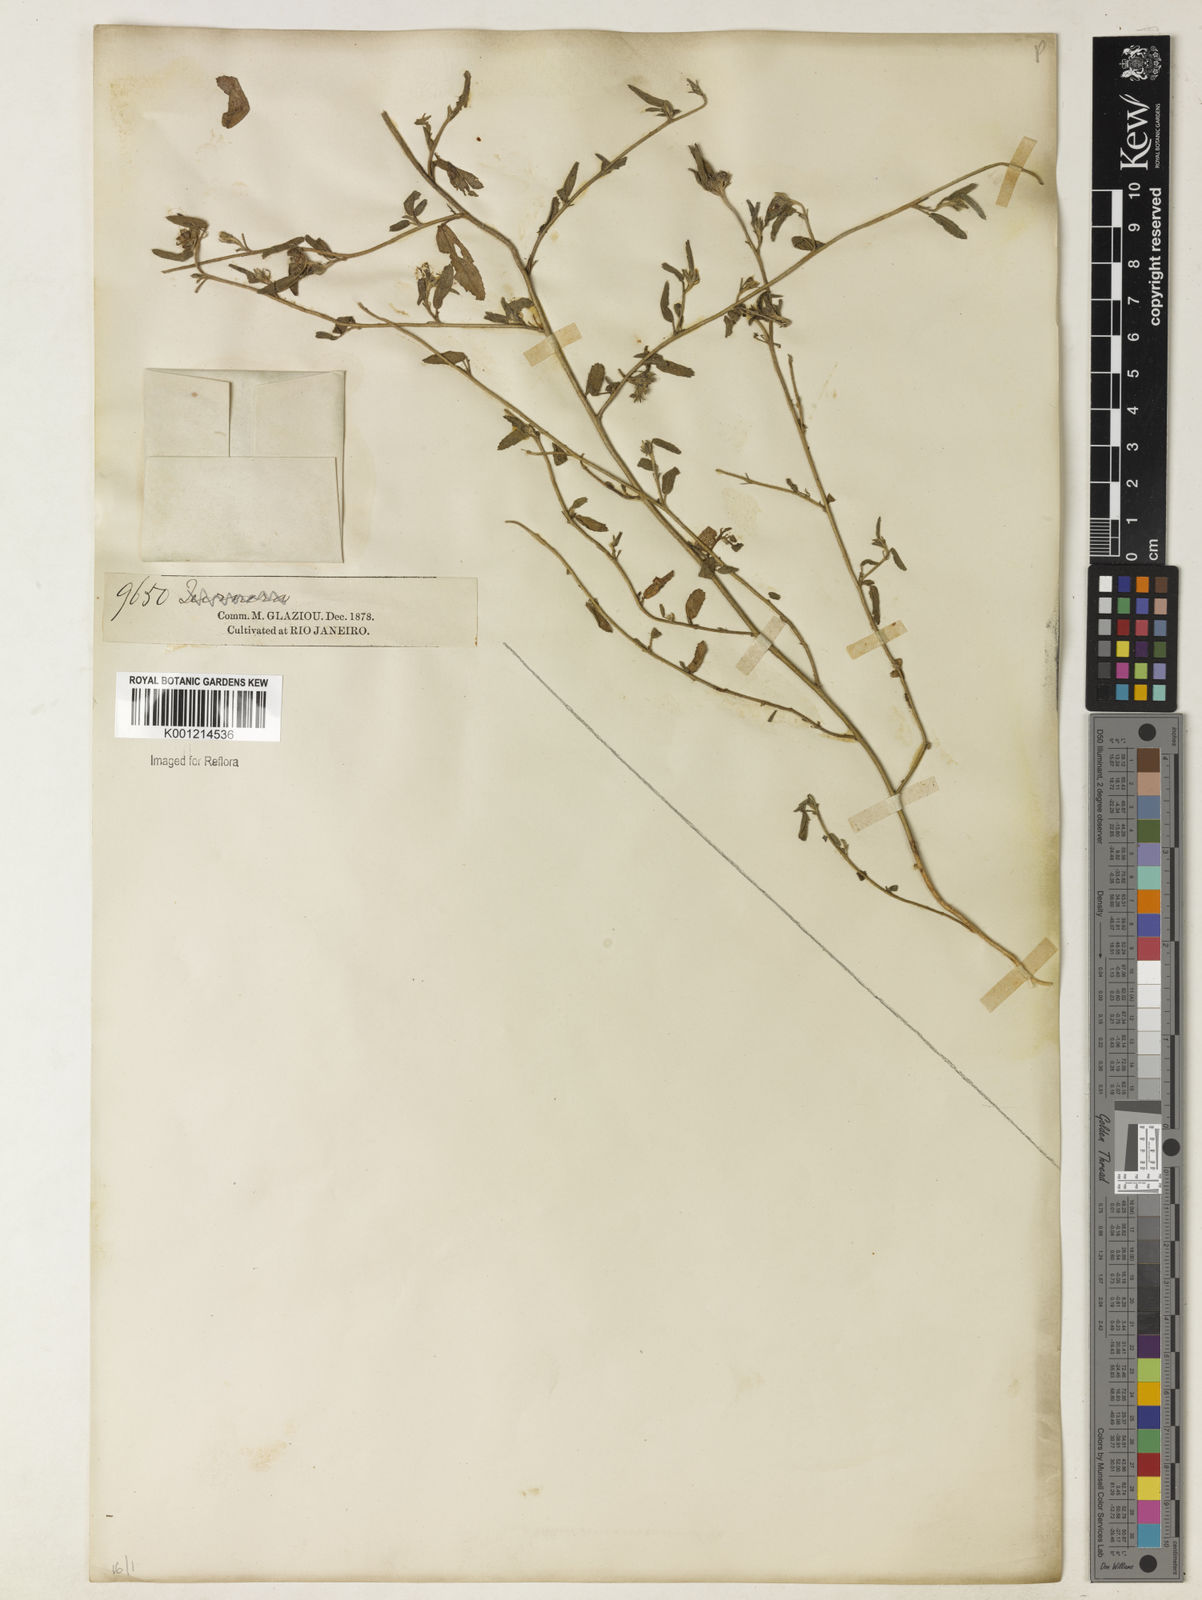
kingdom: Plantae
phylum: Tracheophyta
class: Magnoliopsida
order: Malvales
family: Malvaceae
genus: Sida
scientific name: Sida ciliaris
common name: Bracted fanpetals
